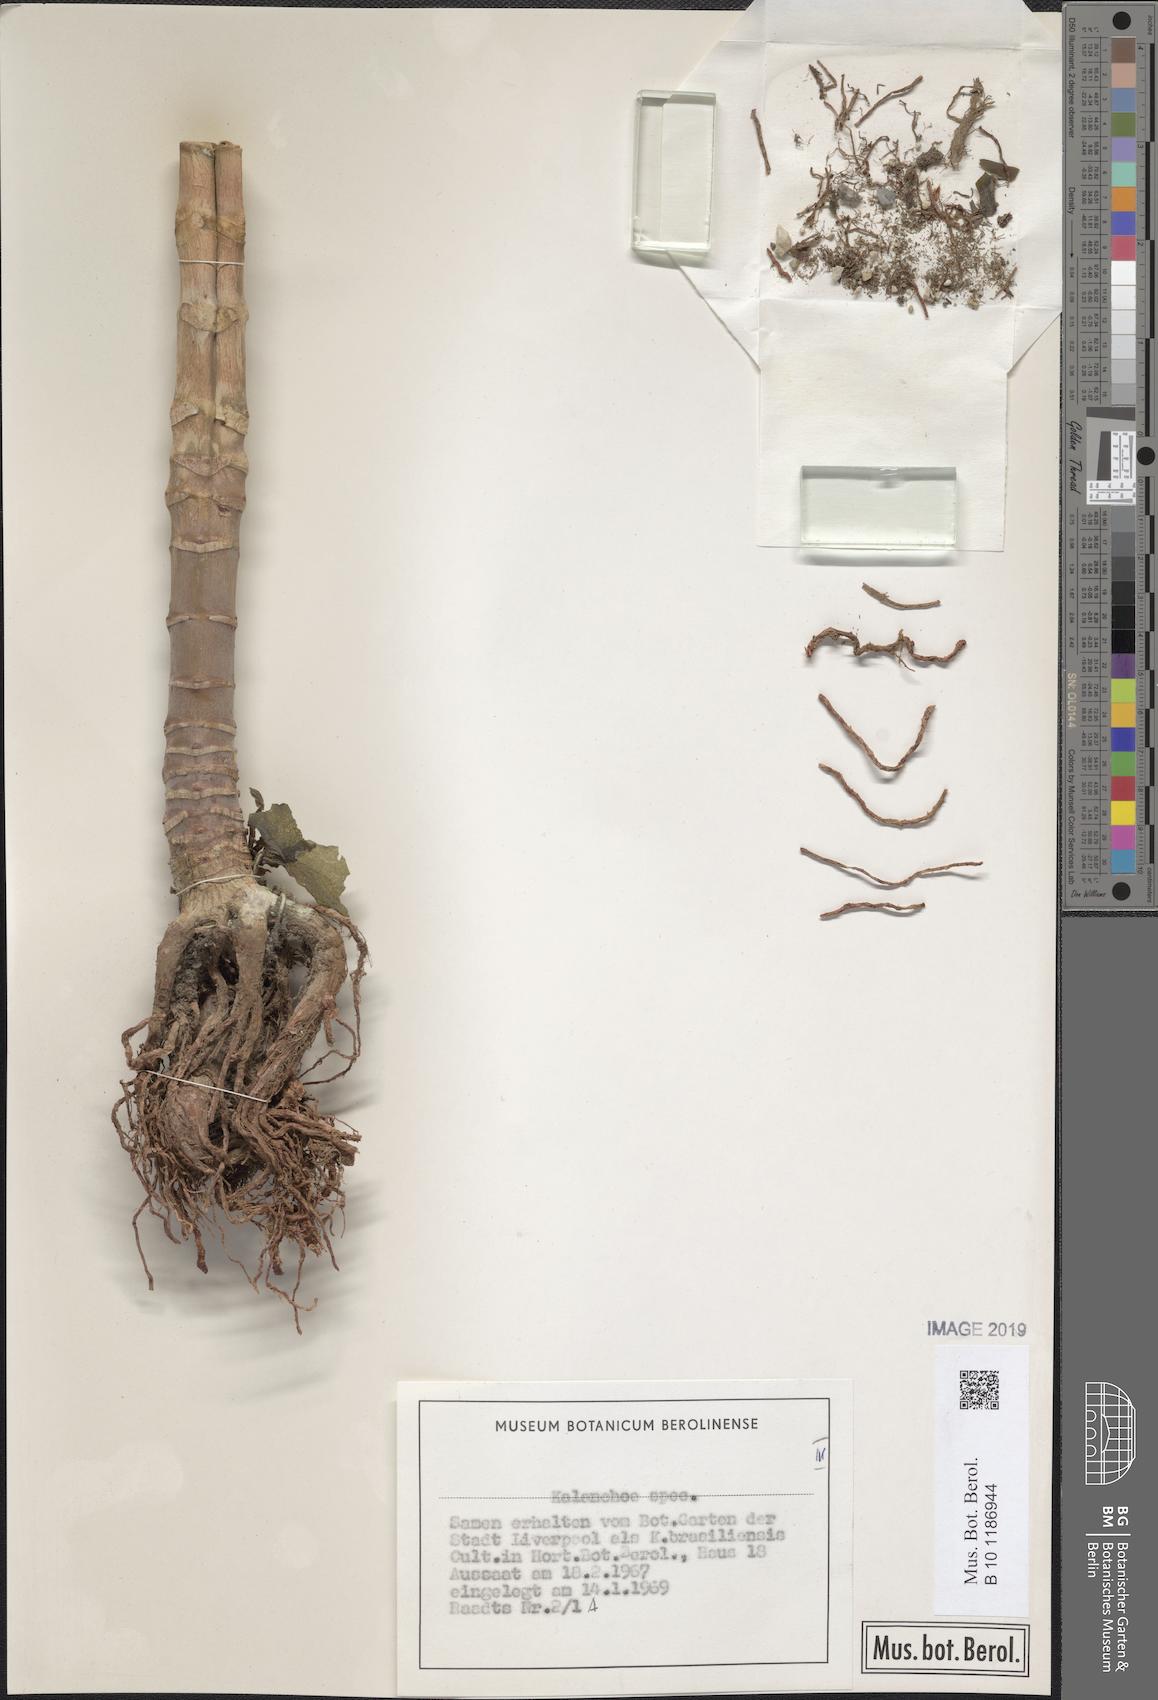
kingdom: Plantae
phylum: Tracheophyta
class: Magnoliopsida
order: Saxifragales
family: Crassulaceae
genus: Kalanchoe
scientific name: Kalanchoe integra
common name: Neverdie
